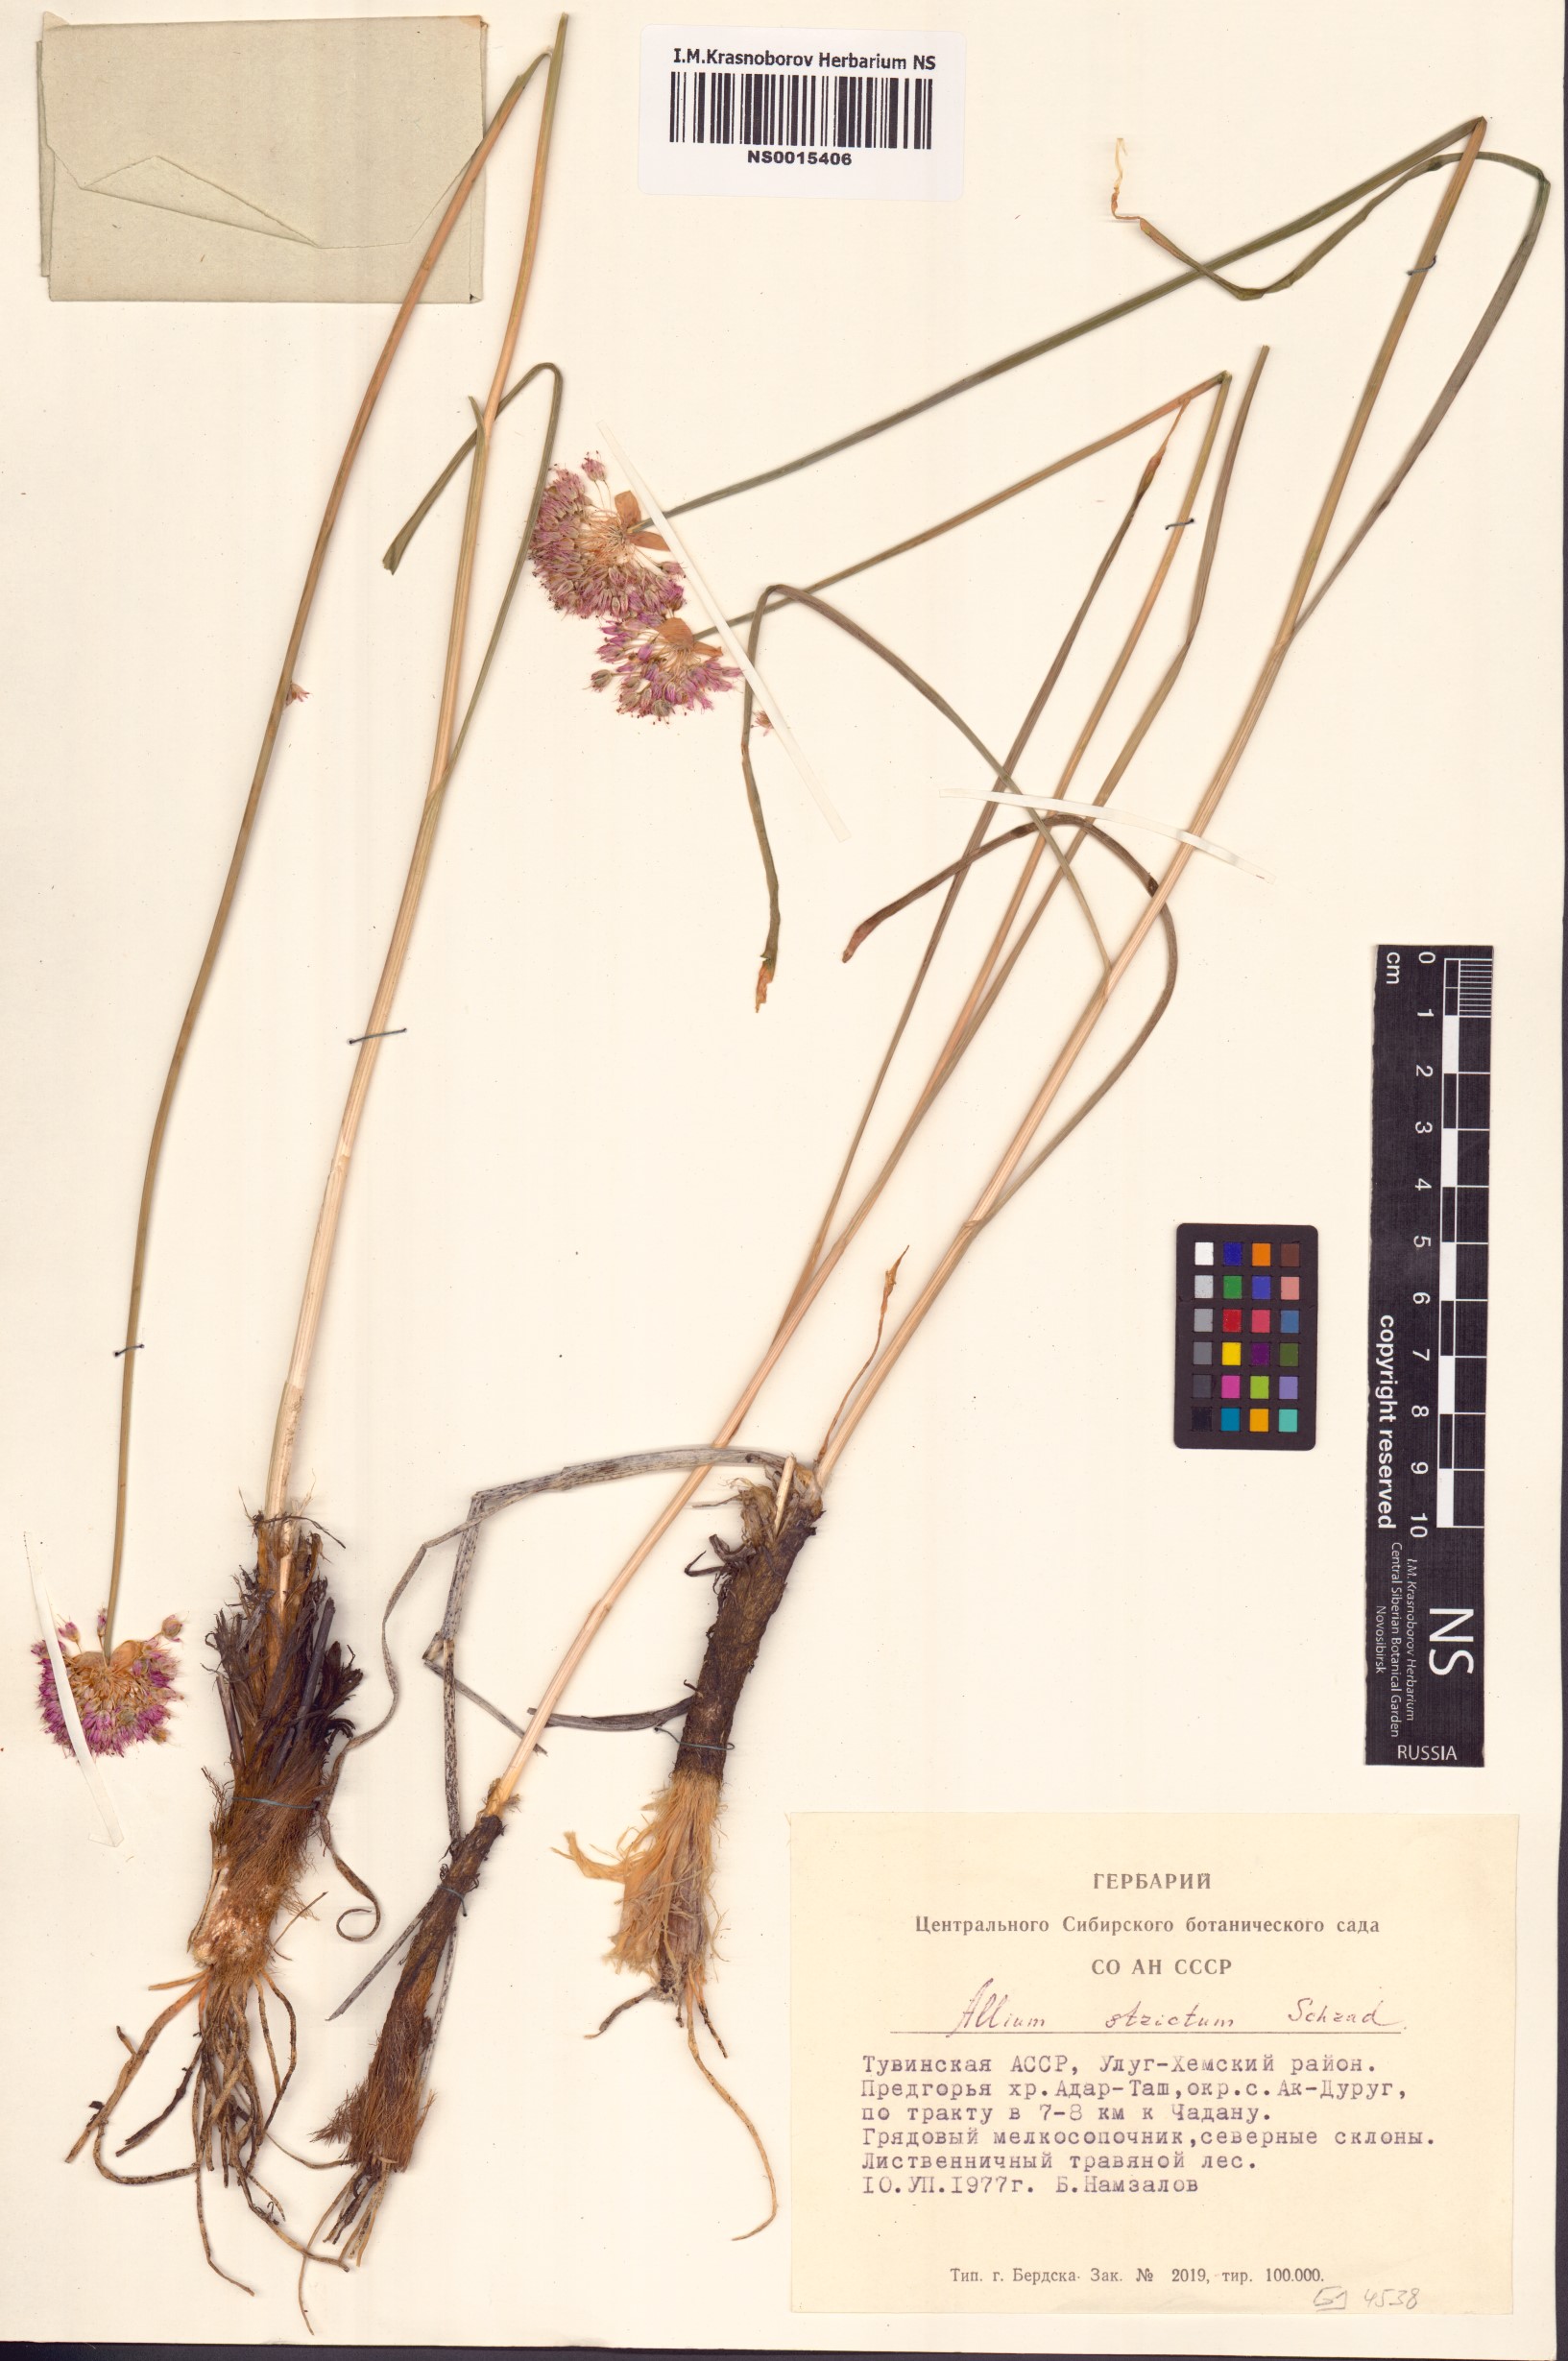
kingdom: Plantae
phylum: Tracheophyta
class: Liliopsida
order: Asparagales
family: Amaryllidaceae
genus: Allium
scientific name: Allium strictum
